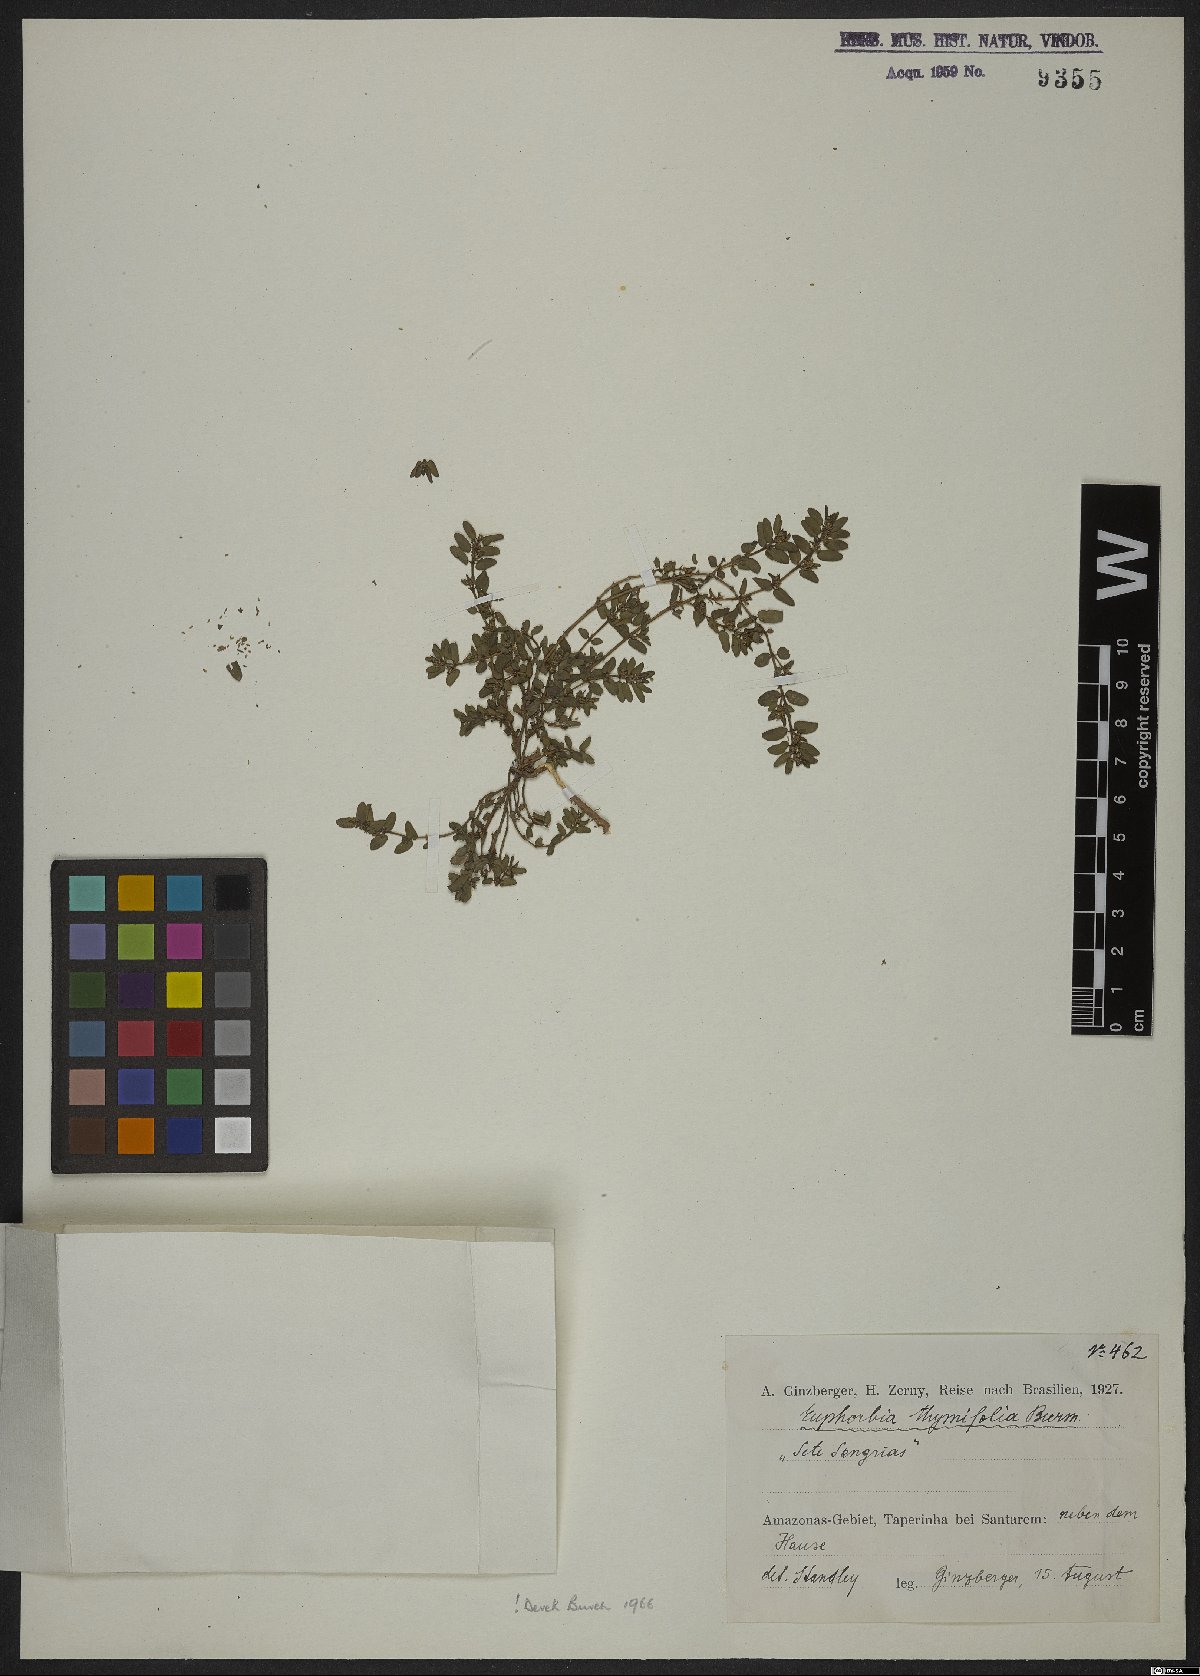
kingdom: Plantae
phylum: Tracheophyta
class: Magnoliopsida
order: Malpighiales
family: Euphorbiaceae
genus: Euphorbia
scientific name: Euphorbia scordiifolia
